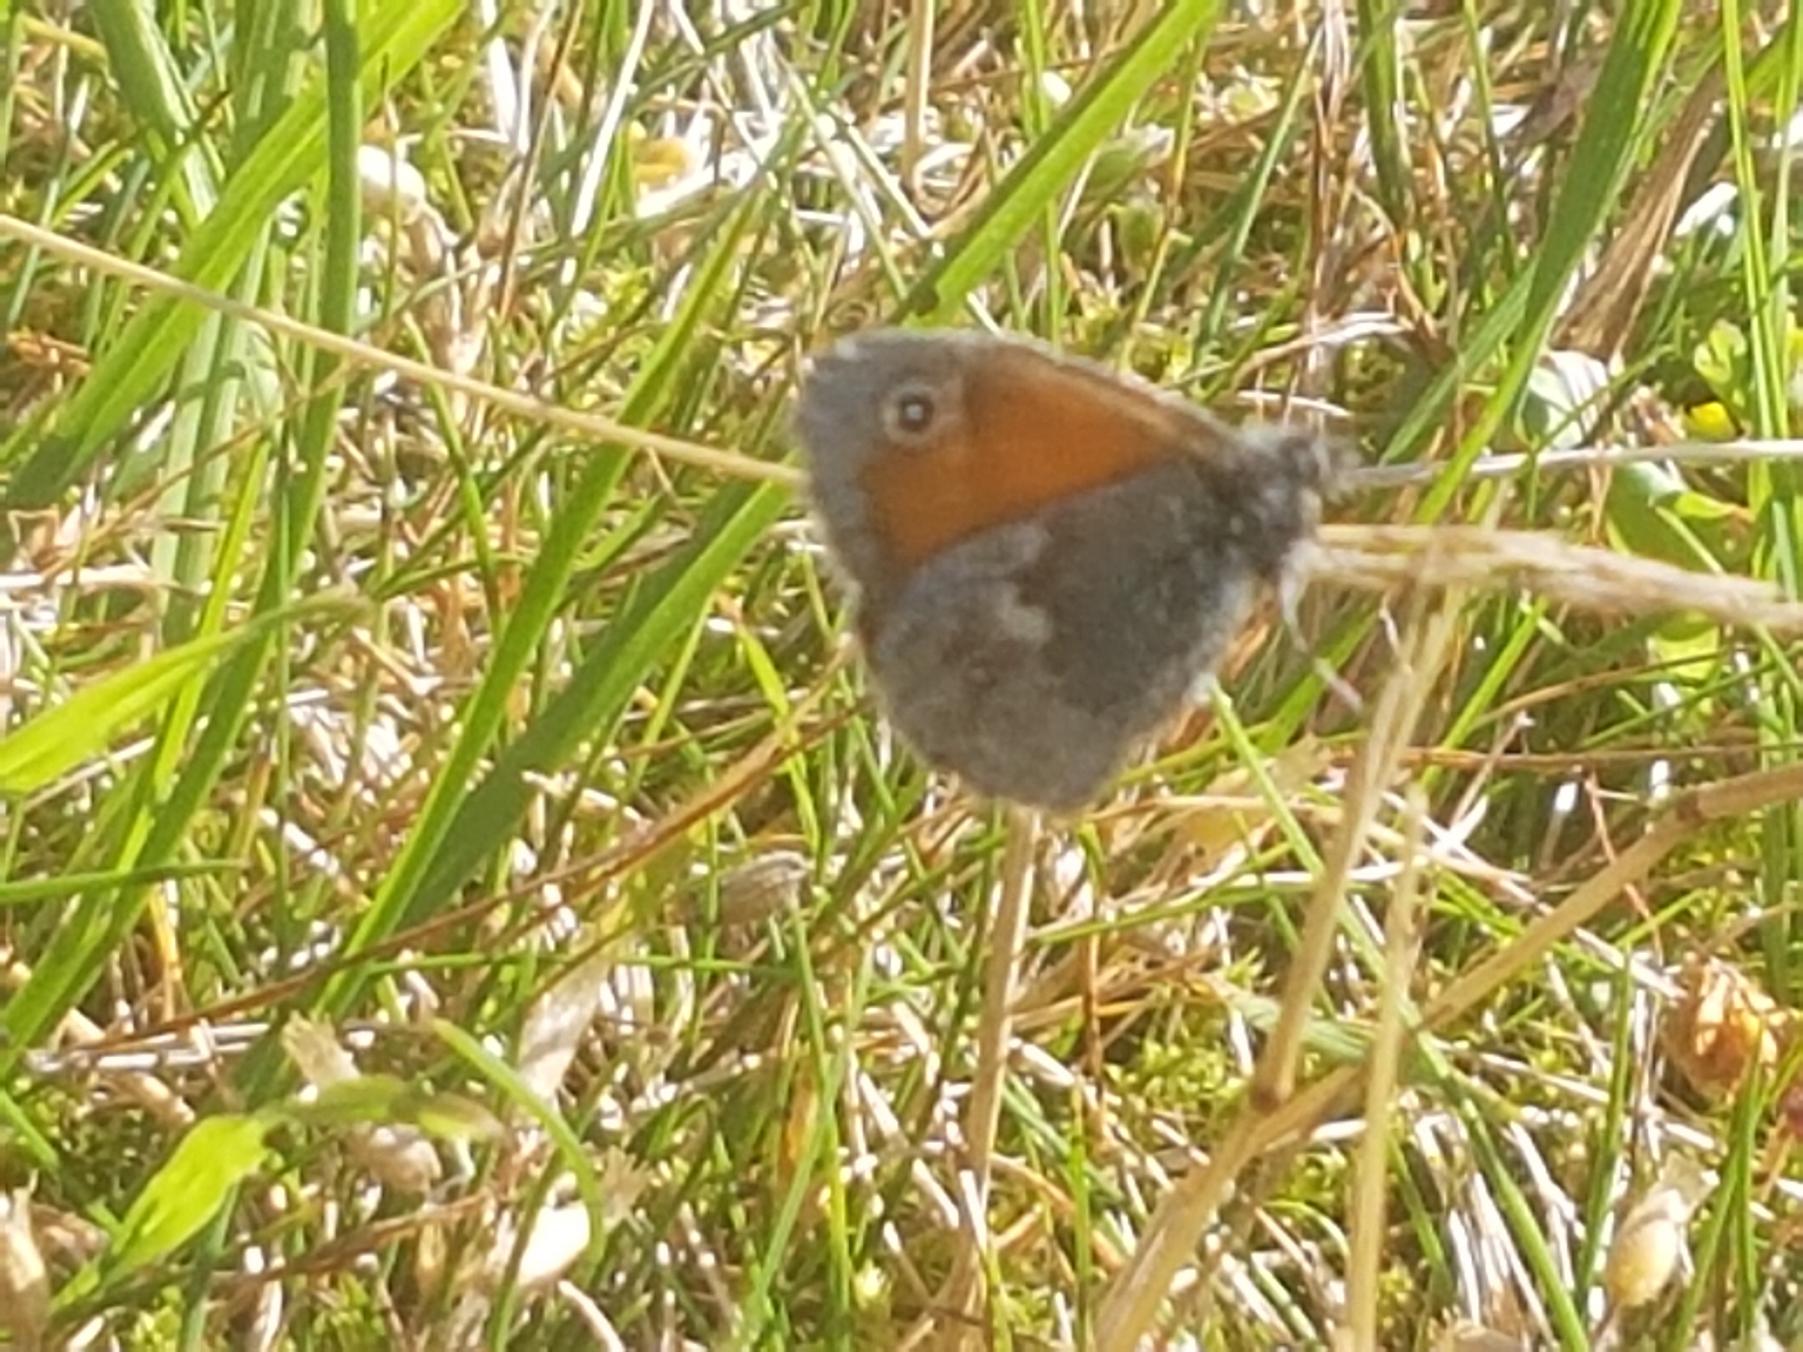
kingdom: Animalia
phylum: Arthropoda
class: Insecta
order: Lepidoptera
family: Nymphalidae
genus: Coenonympha
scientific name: Coenonympha pamphilus
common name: Okkergul randøje
